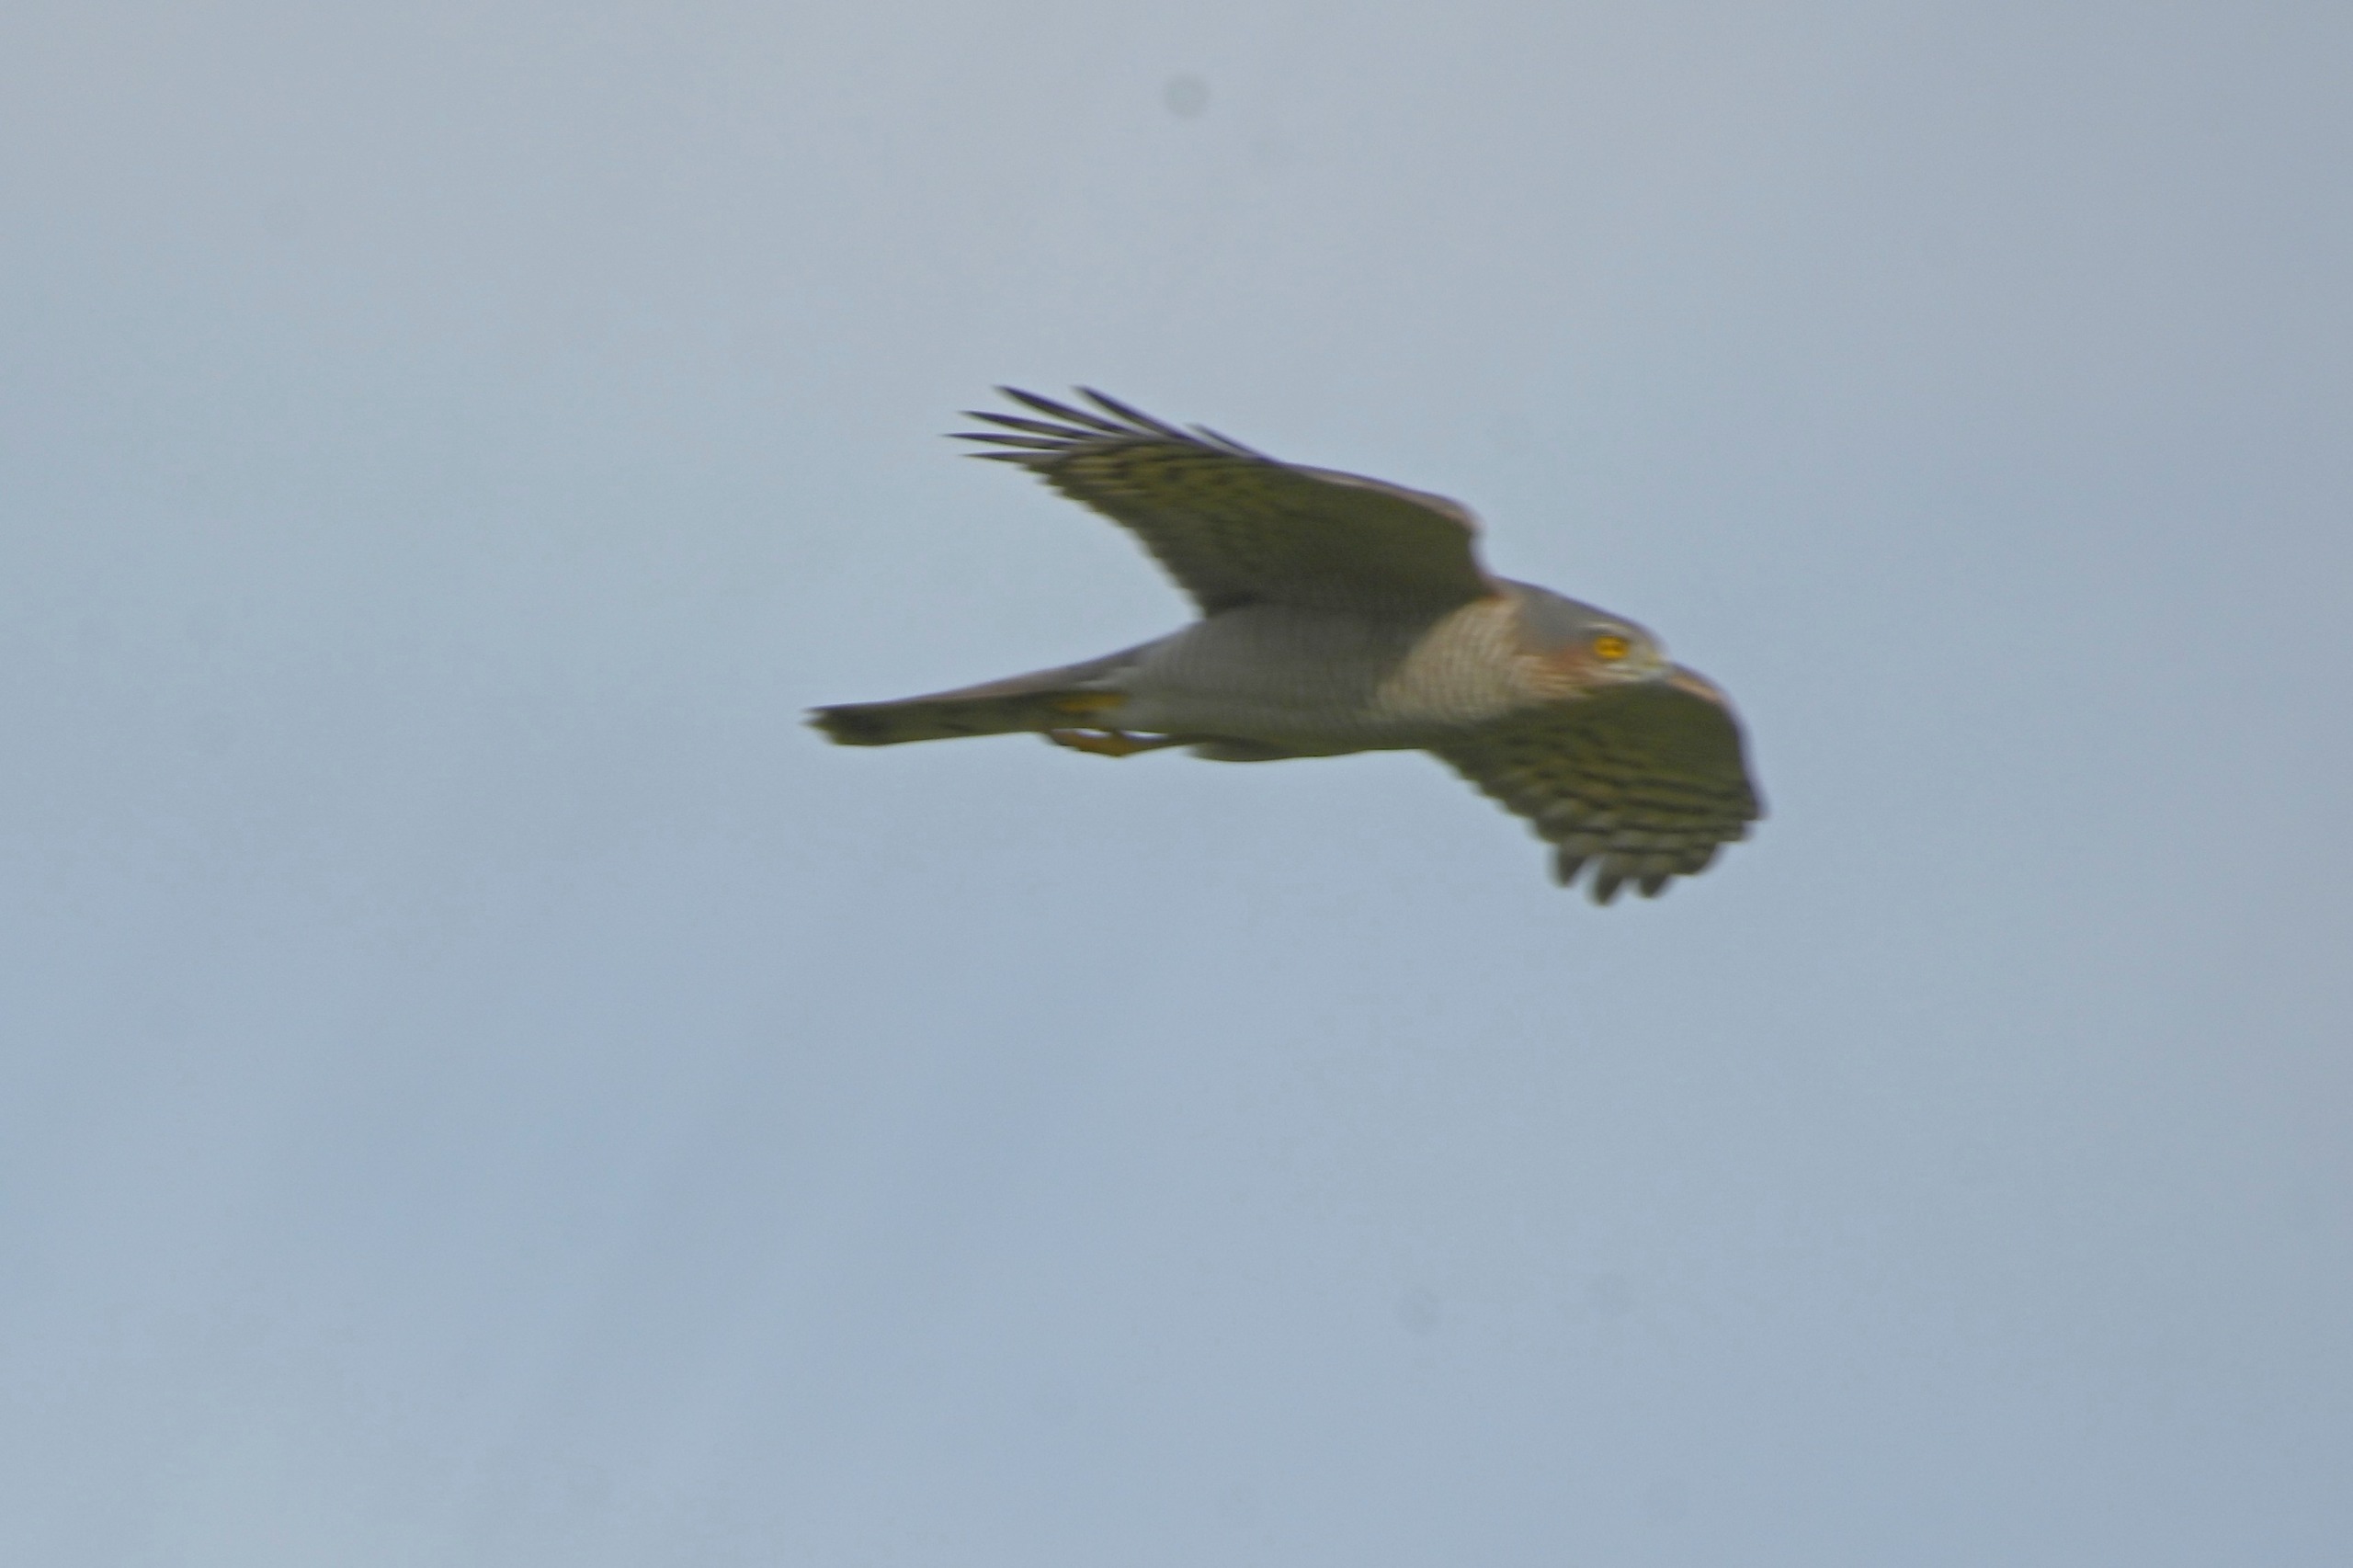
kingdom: Animalia
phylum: Chordata
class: Aves
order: Accipitriformes
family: Accipitridae
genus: Accipiter
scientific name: Accipiter nisus
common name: Spurvehøg
